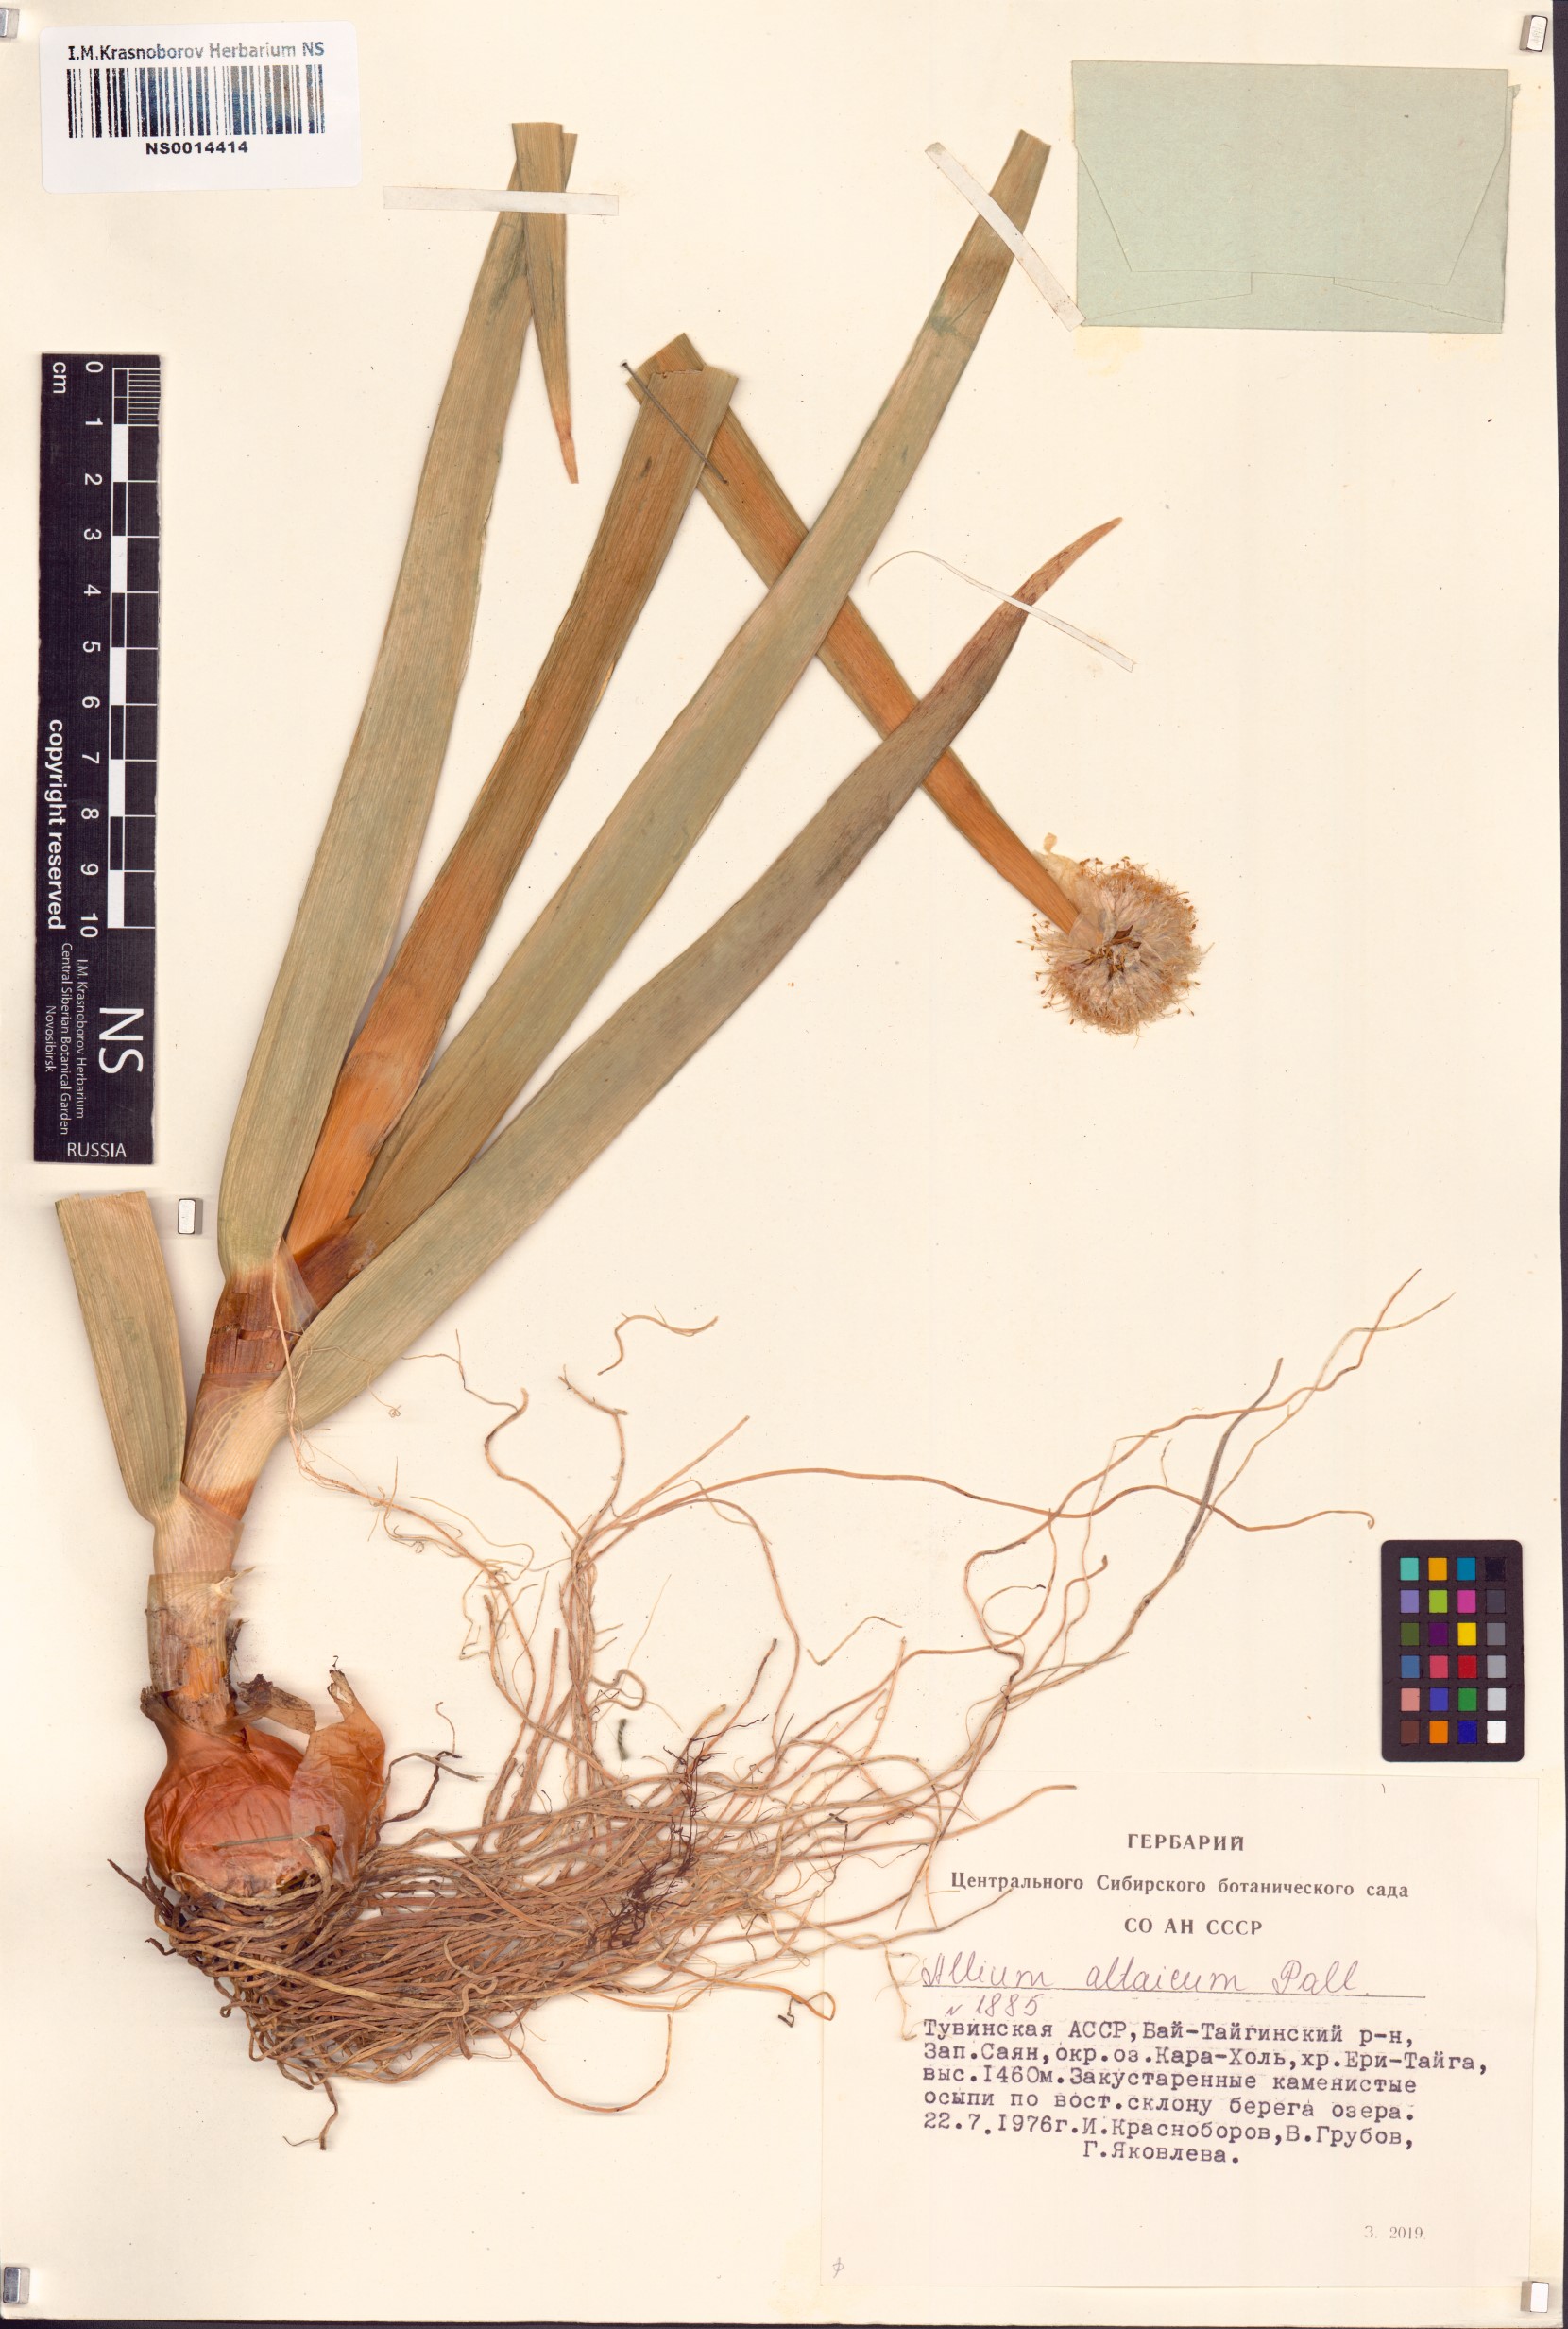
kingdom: Plantae
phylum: Tracheophyta
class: Liliopsida
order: Asparagales
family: Amaryllidaceae
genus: Allium
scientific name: Allium altaicum
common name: Altai onion
